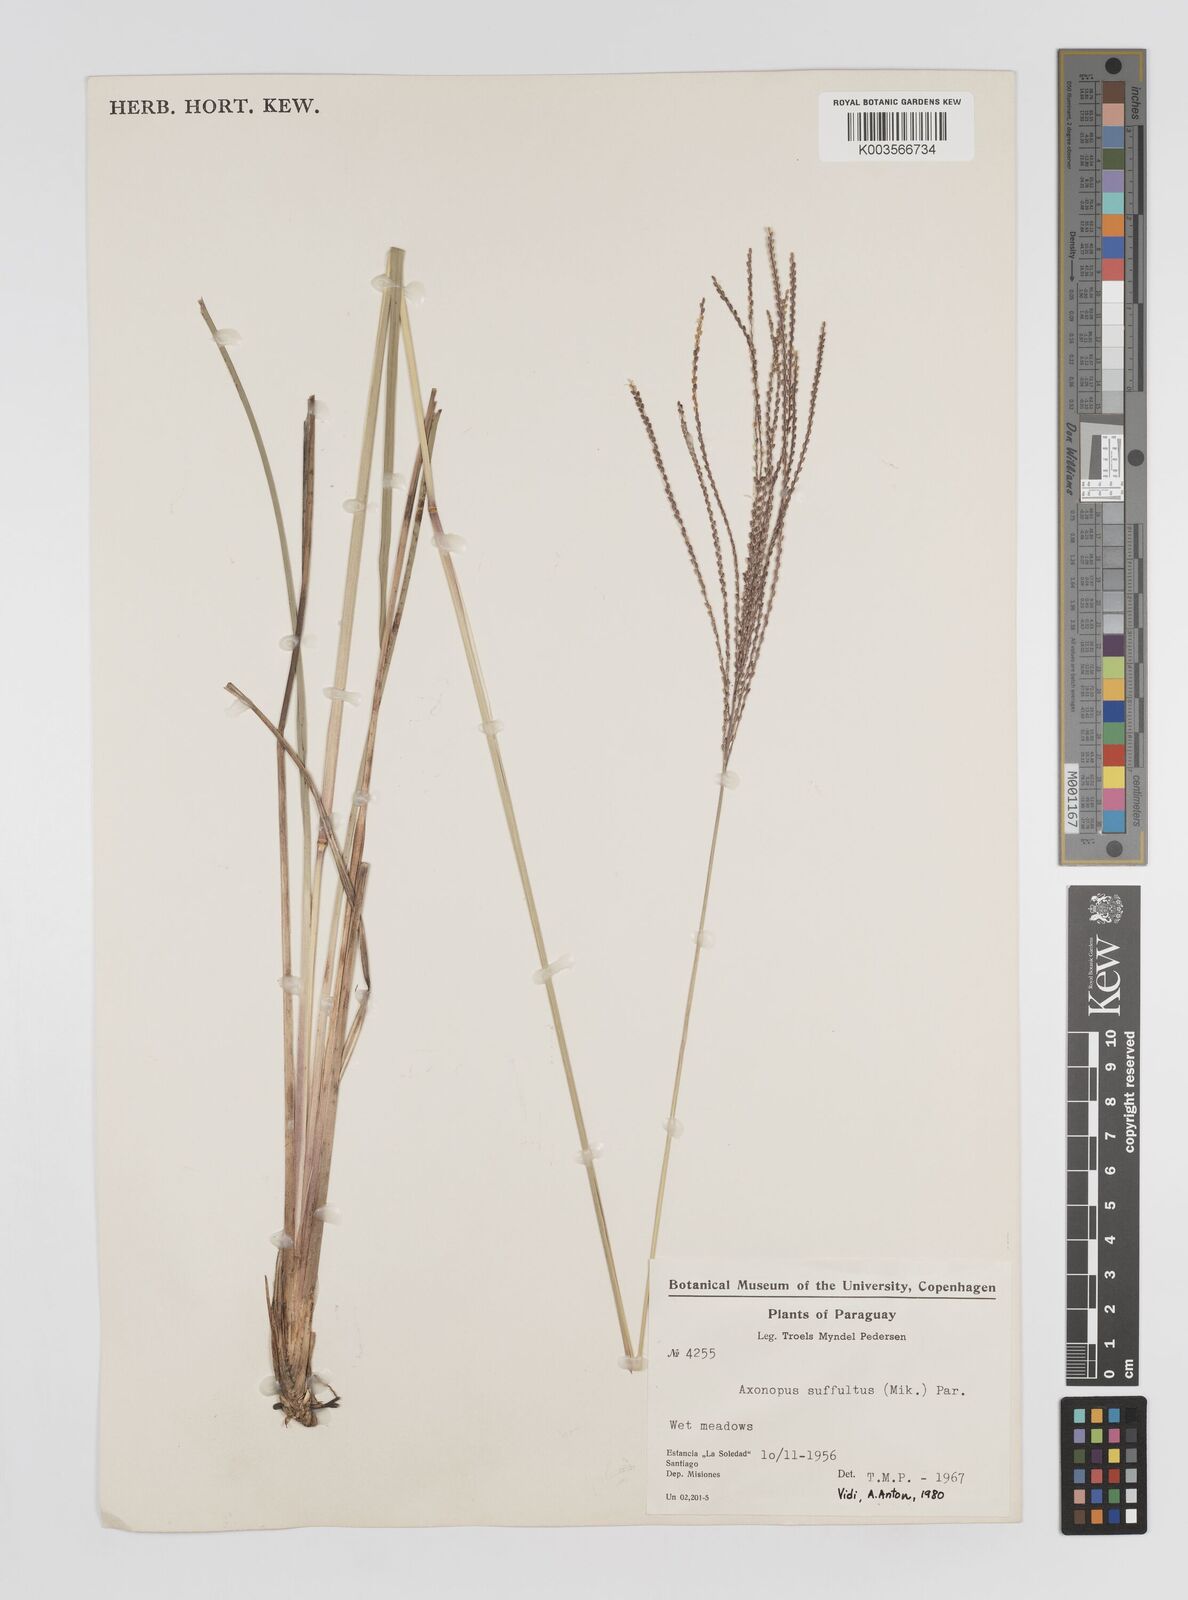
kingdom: Plantae
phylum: Tracheophyta
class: Liliopsida
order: Poales
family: Poaceae
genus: Axonopus
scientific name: Axonopus suffultus
